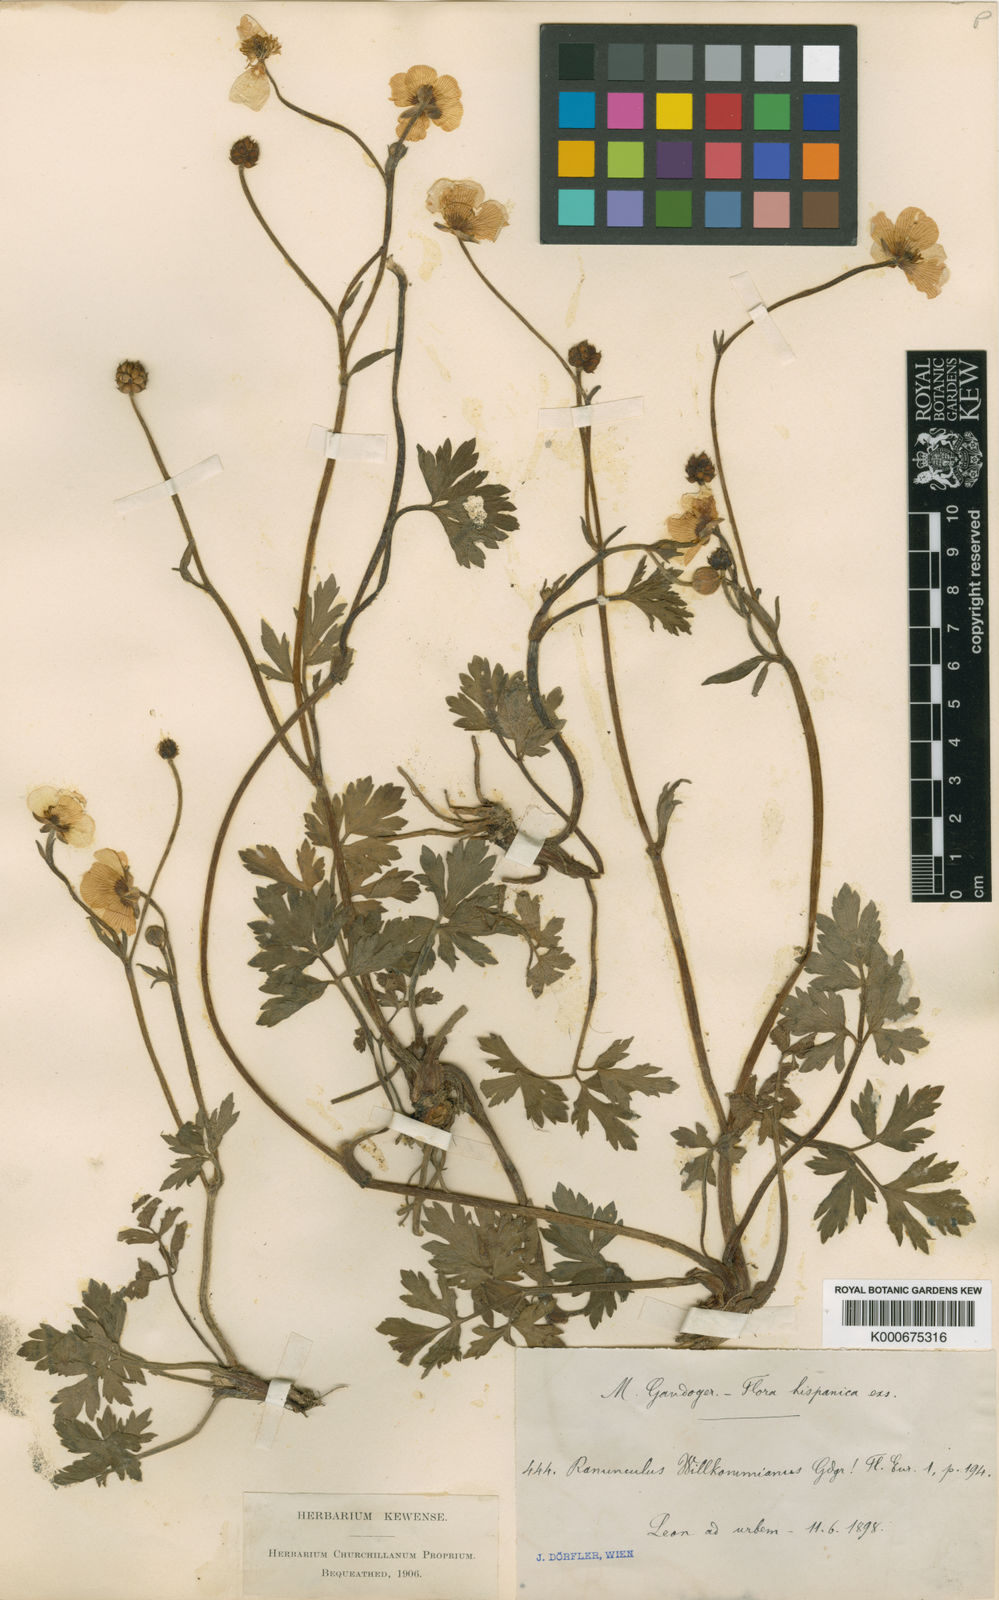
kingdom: Plantae
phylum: Tracheophyta
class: Magnoliopsida
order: Ranunculales
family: Ranunculaceae
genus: Ranunculus
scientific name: Ranunculus repens
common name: Creeping buttercup
